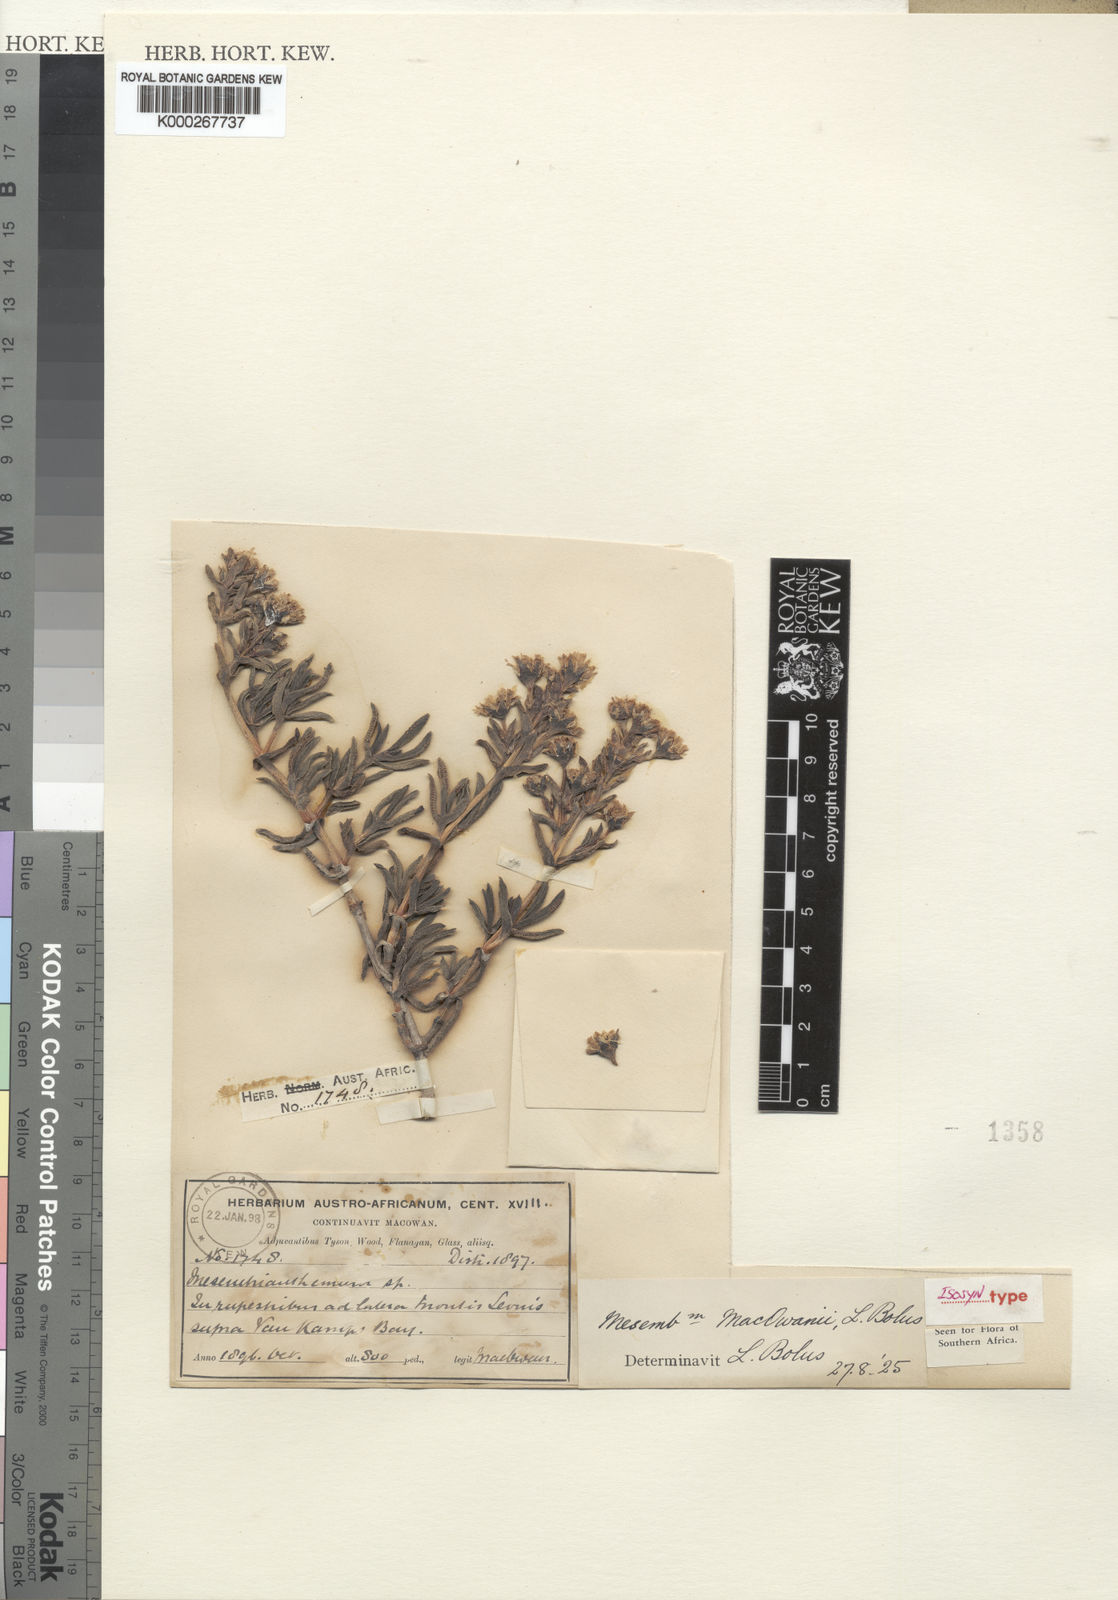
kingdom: Plantae
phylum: Tracheophyta
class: Magnoliopsida
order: Caryophyllales
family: Aizoaceae
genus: Ruschia
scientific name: Ruschia macowanii
